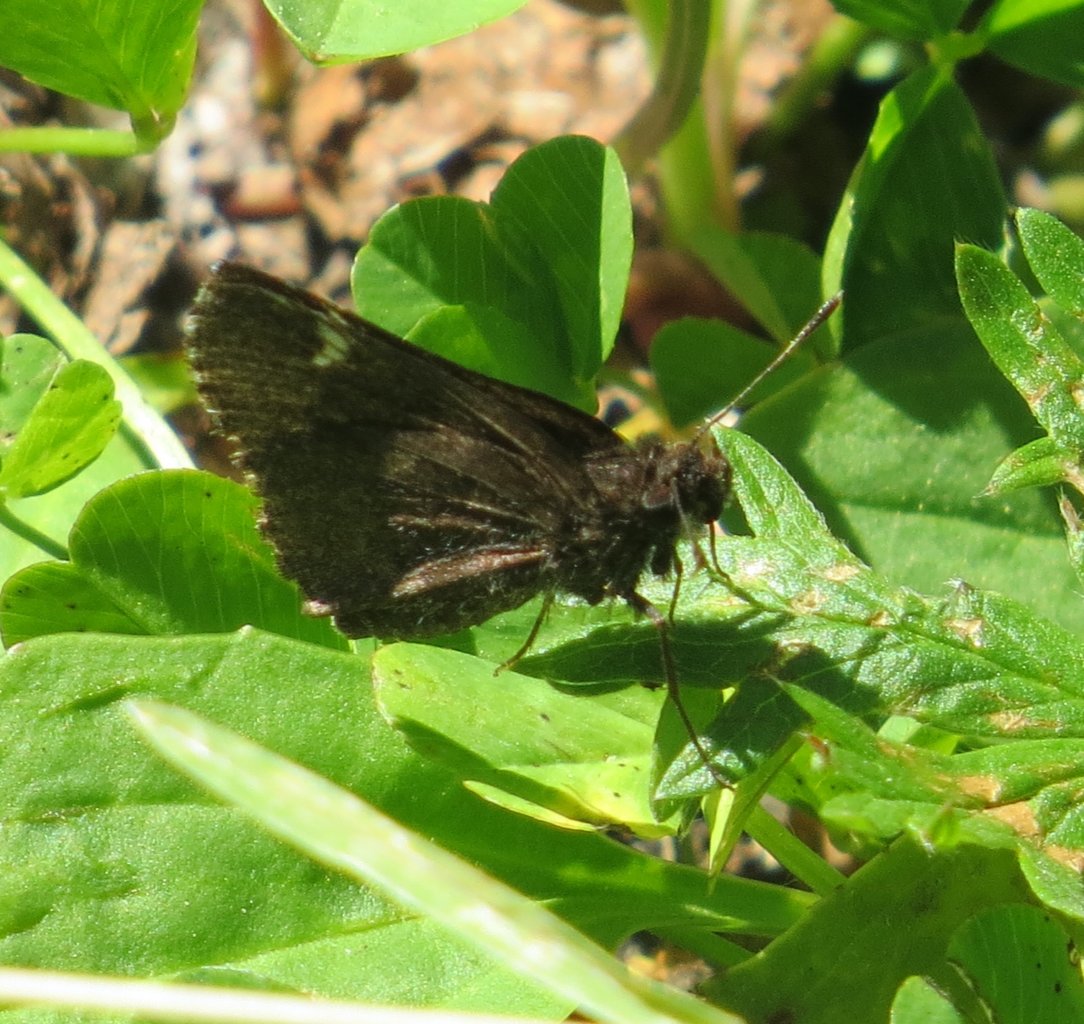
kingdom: Animalia
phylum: Arthropoda
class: Insecta
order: Lepidoptera
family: Hesperiidae
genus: Mastor
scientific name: Mastor vialis
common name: Common Roadside-Skipper
